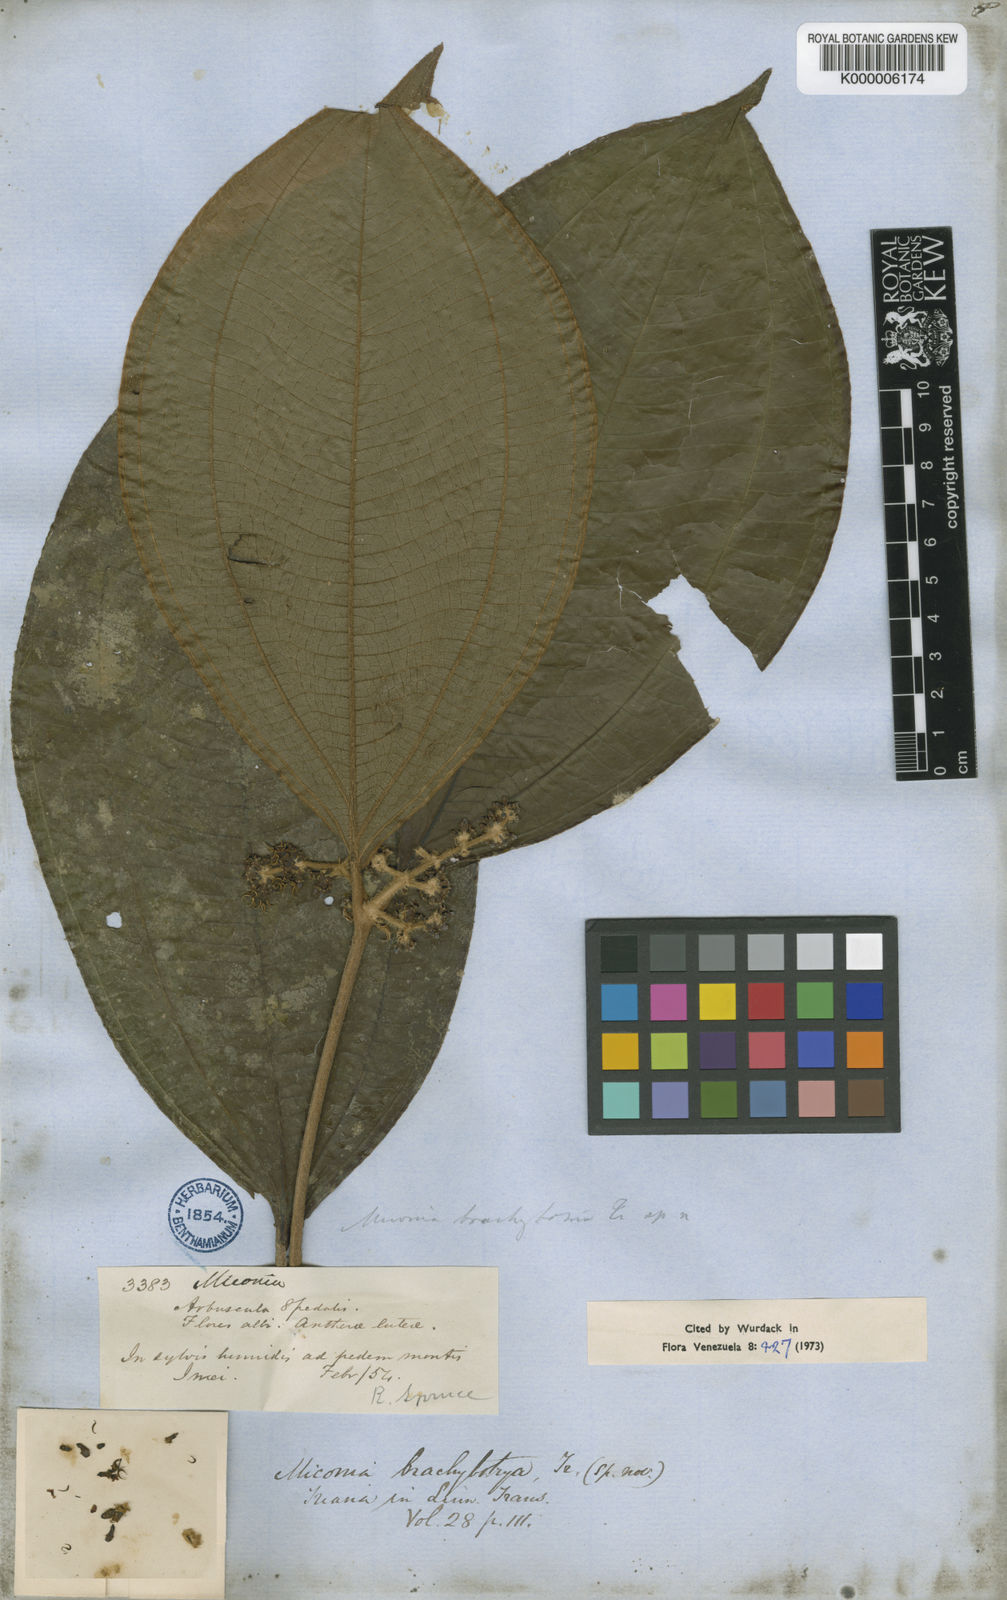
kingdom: Plantae
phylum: Tracheophyta
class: Magnoliopsida
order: Myrtales
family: Melastomataceae
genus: Miconia
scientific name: Miconia brachybotrya
